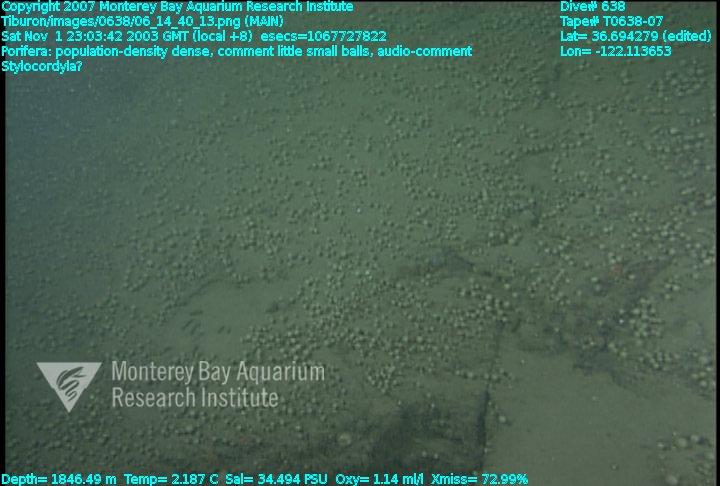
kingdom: Animalia
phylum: Porifera
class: Demospongiae
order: Suberitida
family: Stylocordylidae
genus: Stylocordyla
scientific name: Stylocordyla
